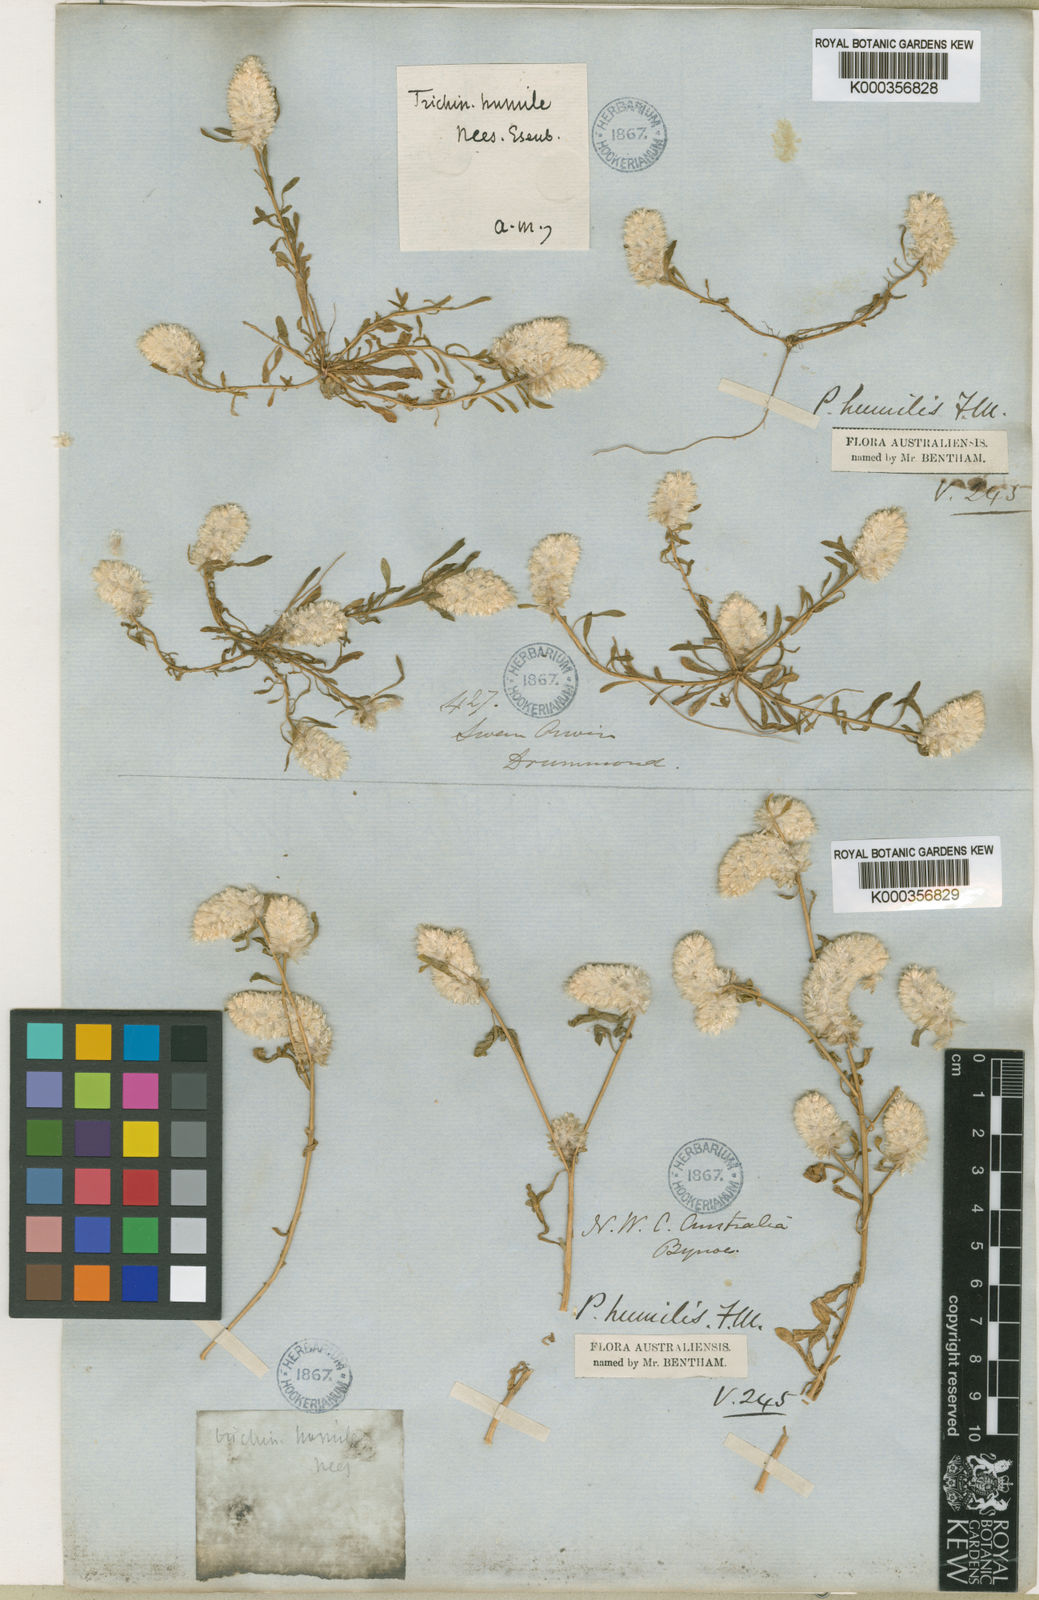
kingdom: Plantae
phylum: Tracheophyta
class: Magnoliopsida
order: Caryophyllales
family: Amaranthaceae
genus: Ptilotus
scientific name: Ptilotus humilis
